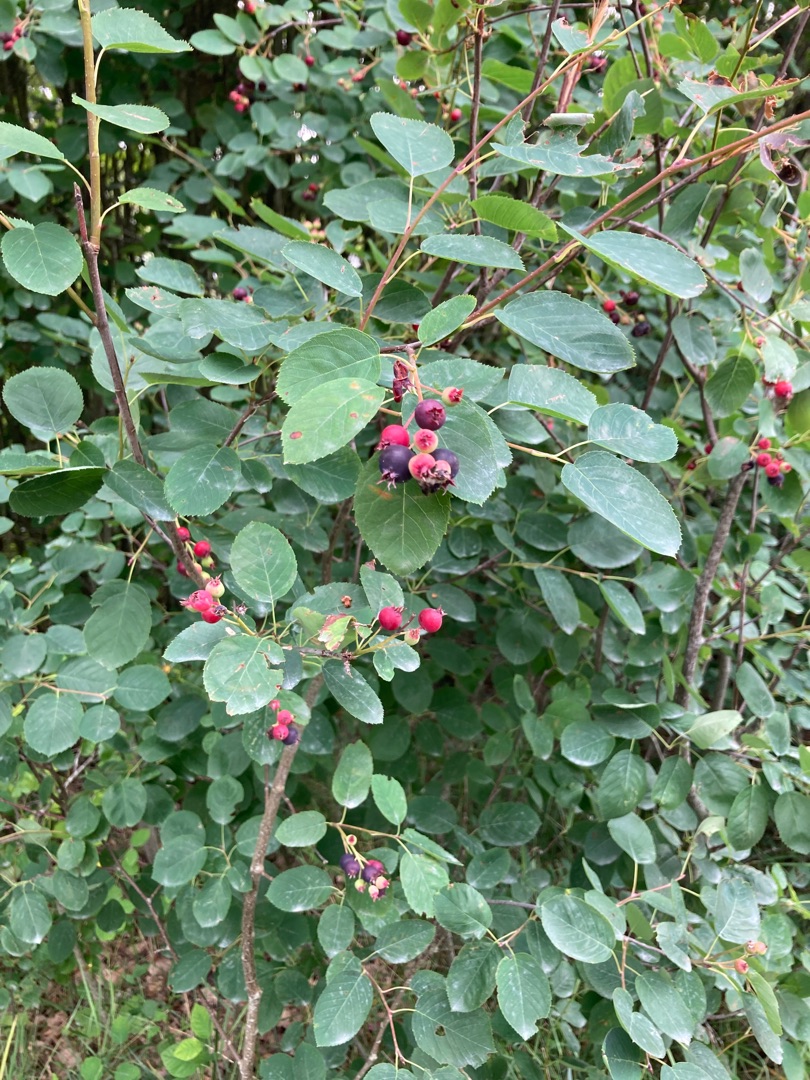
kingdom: Plantae
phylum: Tracheophyta
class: Magnoliopsida
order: Rosales
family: Rosaceae
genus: Amelanchier
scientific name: Amelanchier humilis
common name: Aks-bærmispel
